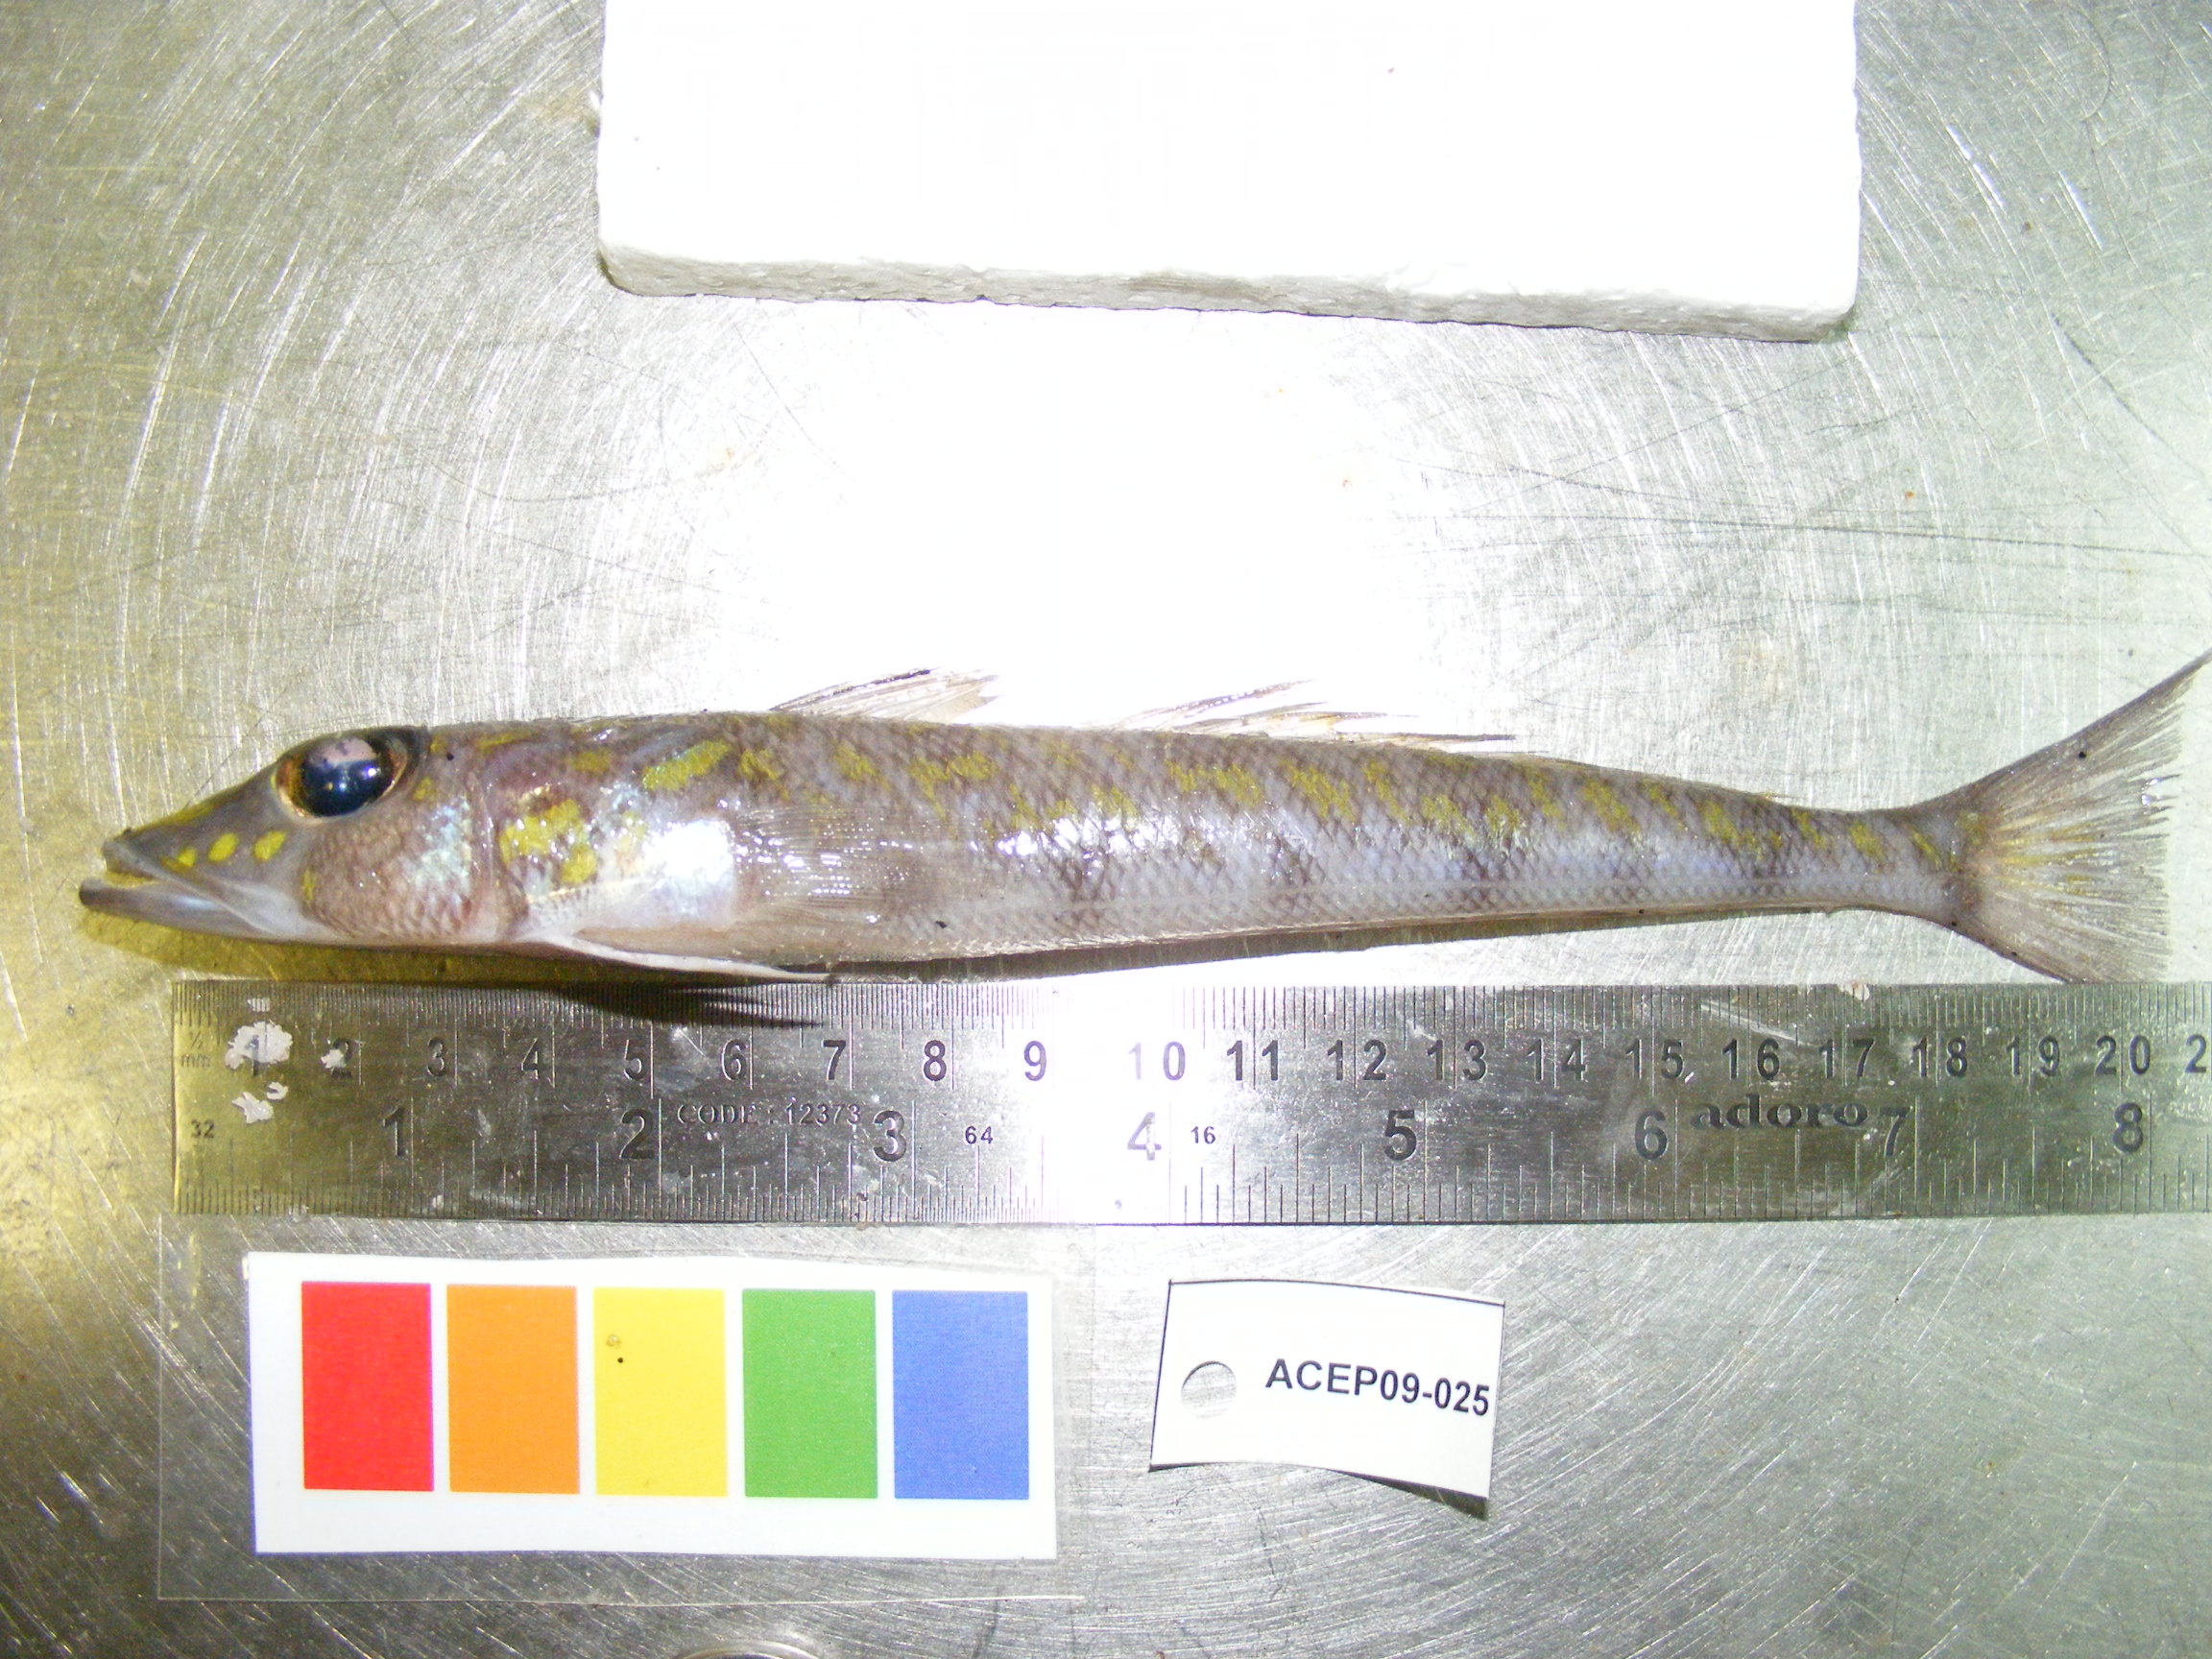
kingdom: Animalia
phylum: Chordata
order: Perciformes
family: Percophidae
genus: Bembrops
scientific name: Bembrops platyrhynchus
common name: Natal duckbill
